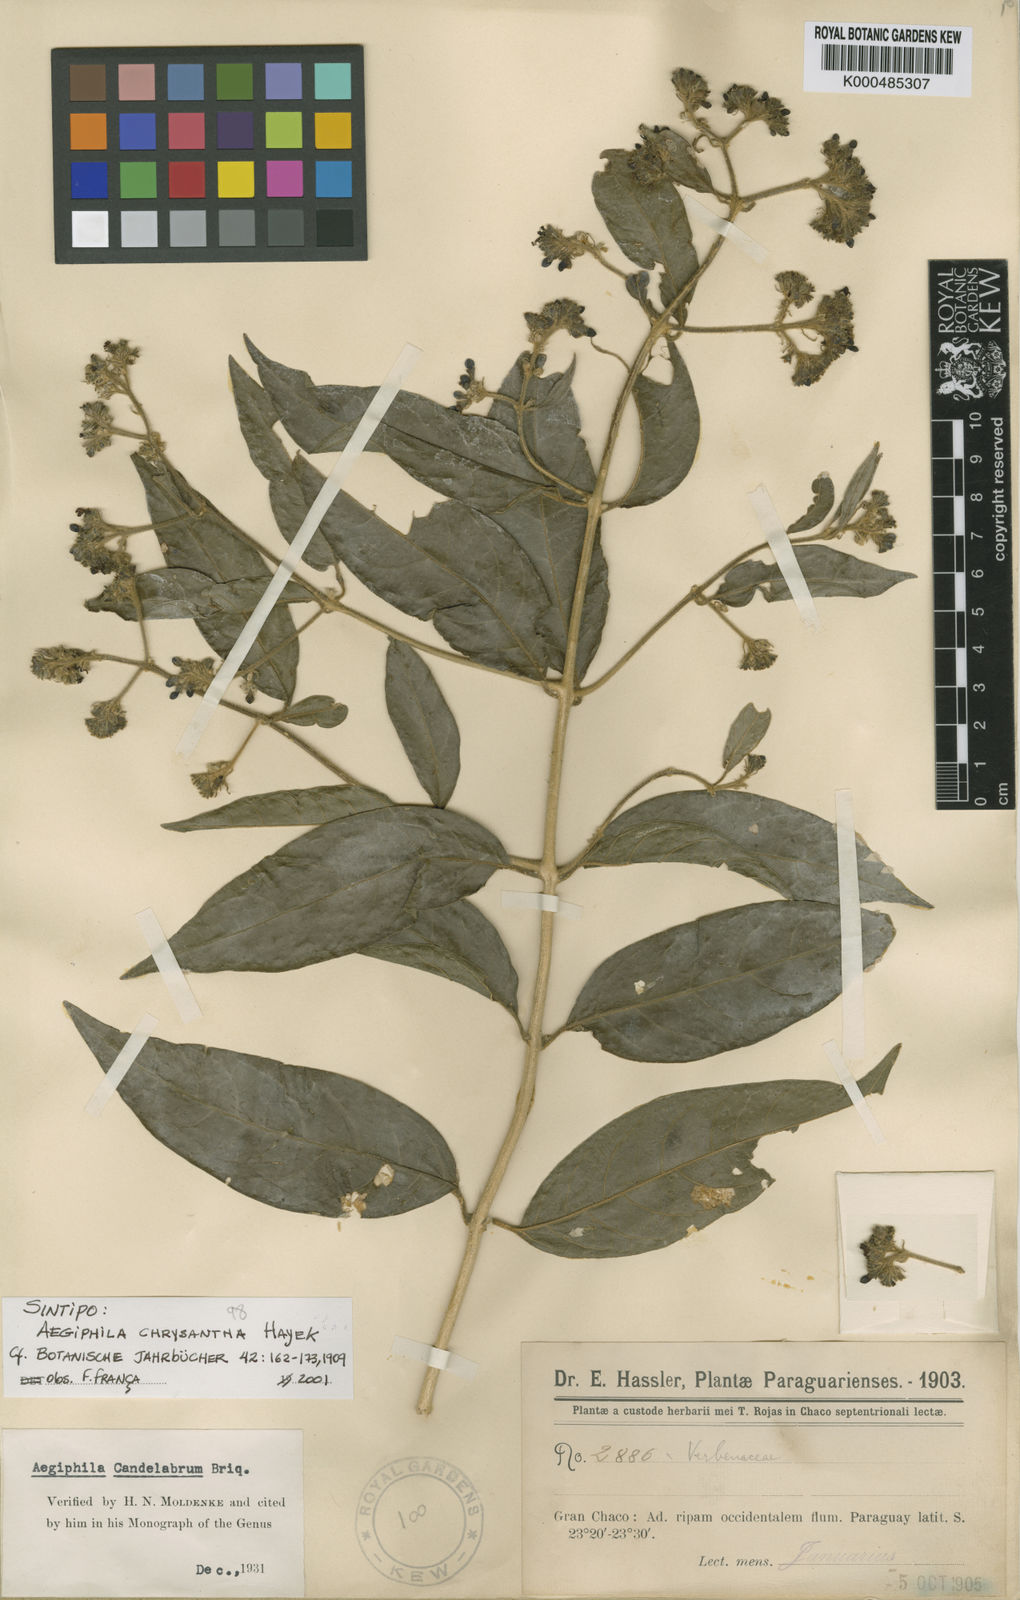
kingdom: Plantae
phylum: Tracheophyta
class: Magnoliopsida
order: Lamiales
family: Lamiaceae
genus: Aegiphila
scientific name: Aegiphila vitelliniflora
